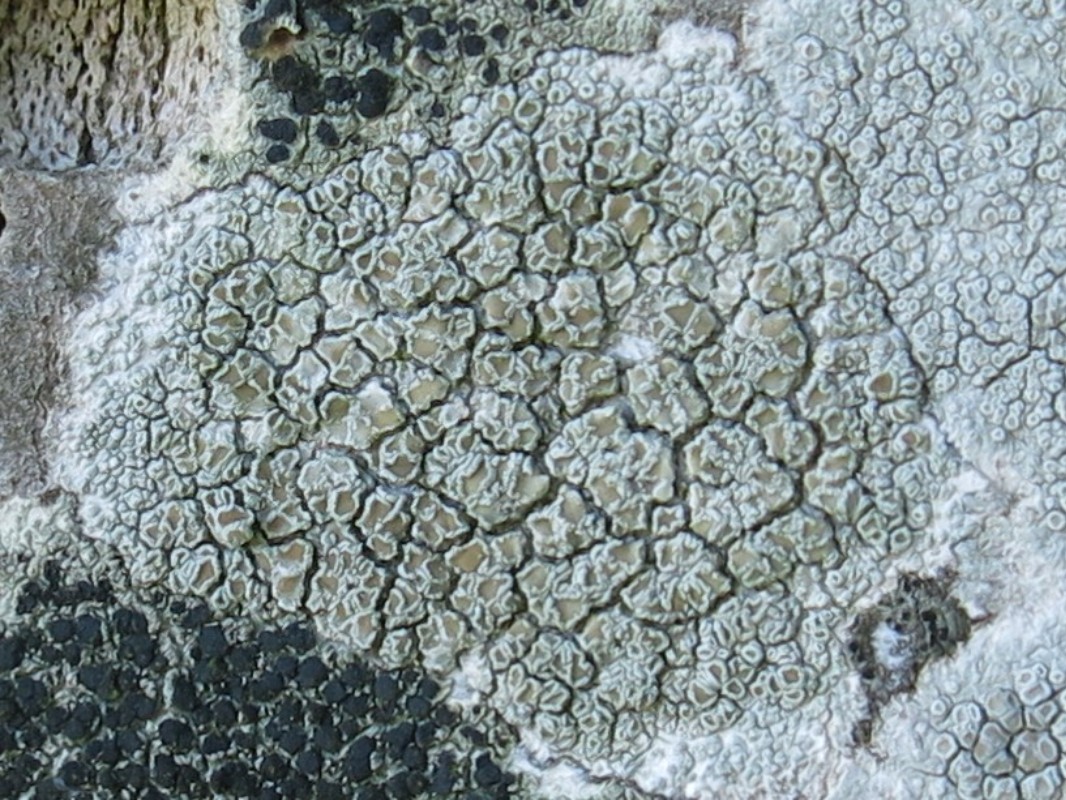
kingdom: Fungi
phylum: Ascomycota
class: Lecanoromycetes
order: Lecanorales
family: Lecanoraceae
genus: Lecanora
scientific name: Lecanora chlarotera
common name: brun kantskivelav
